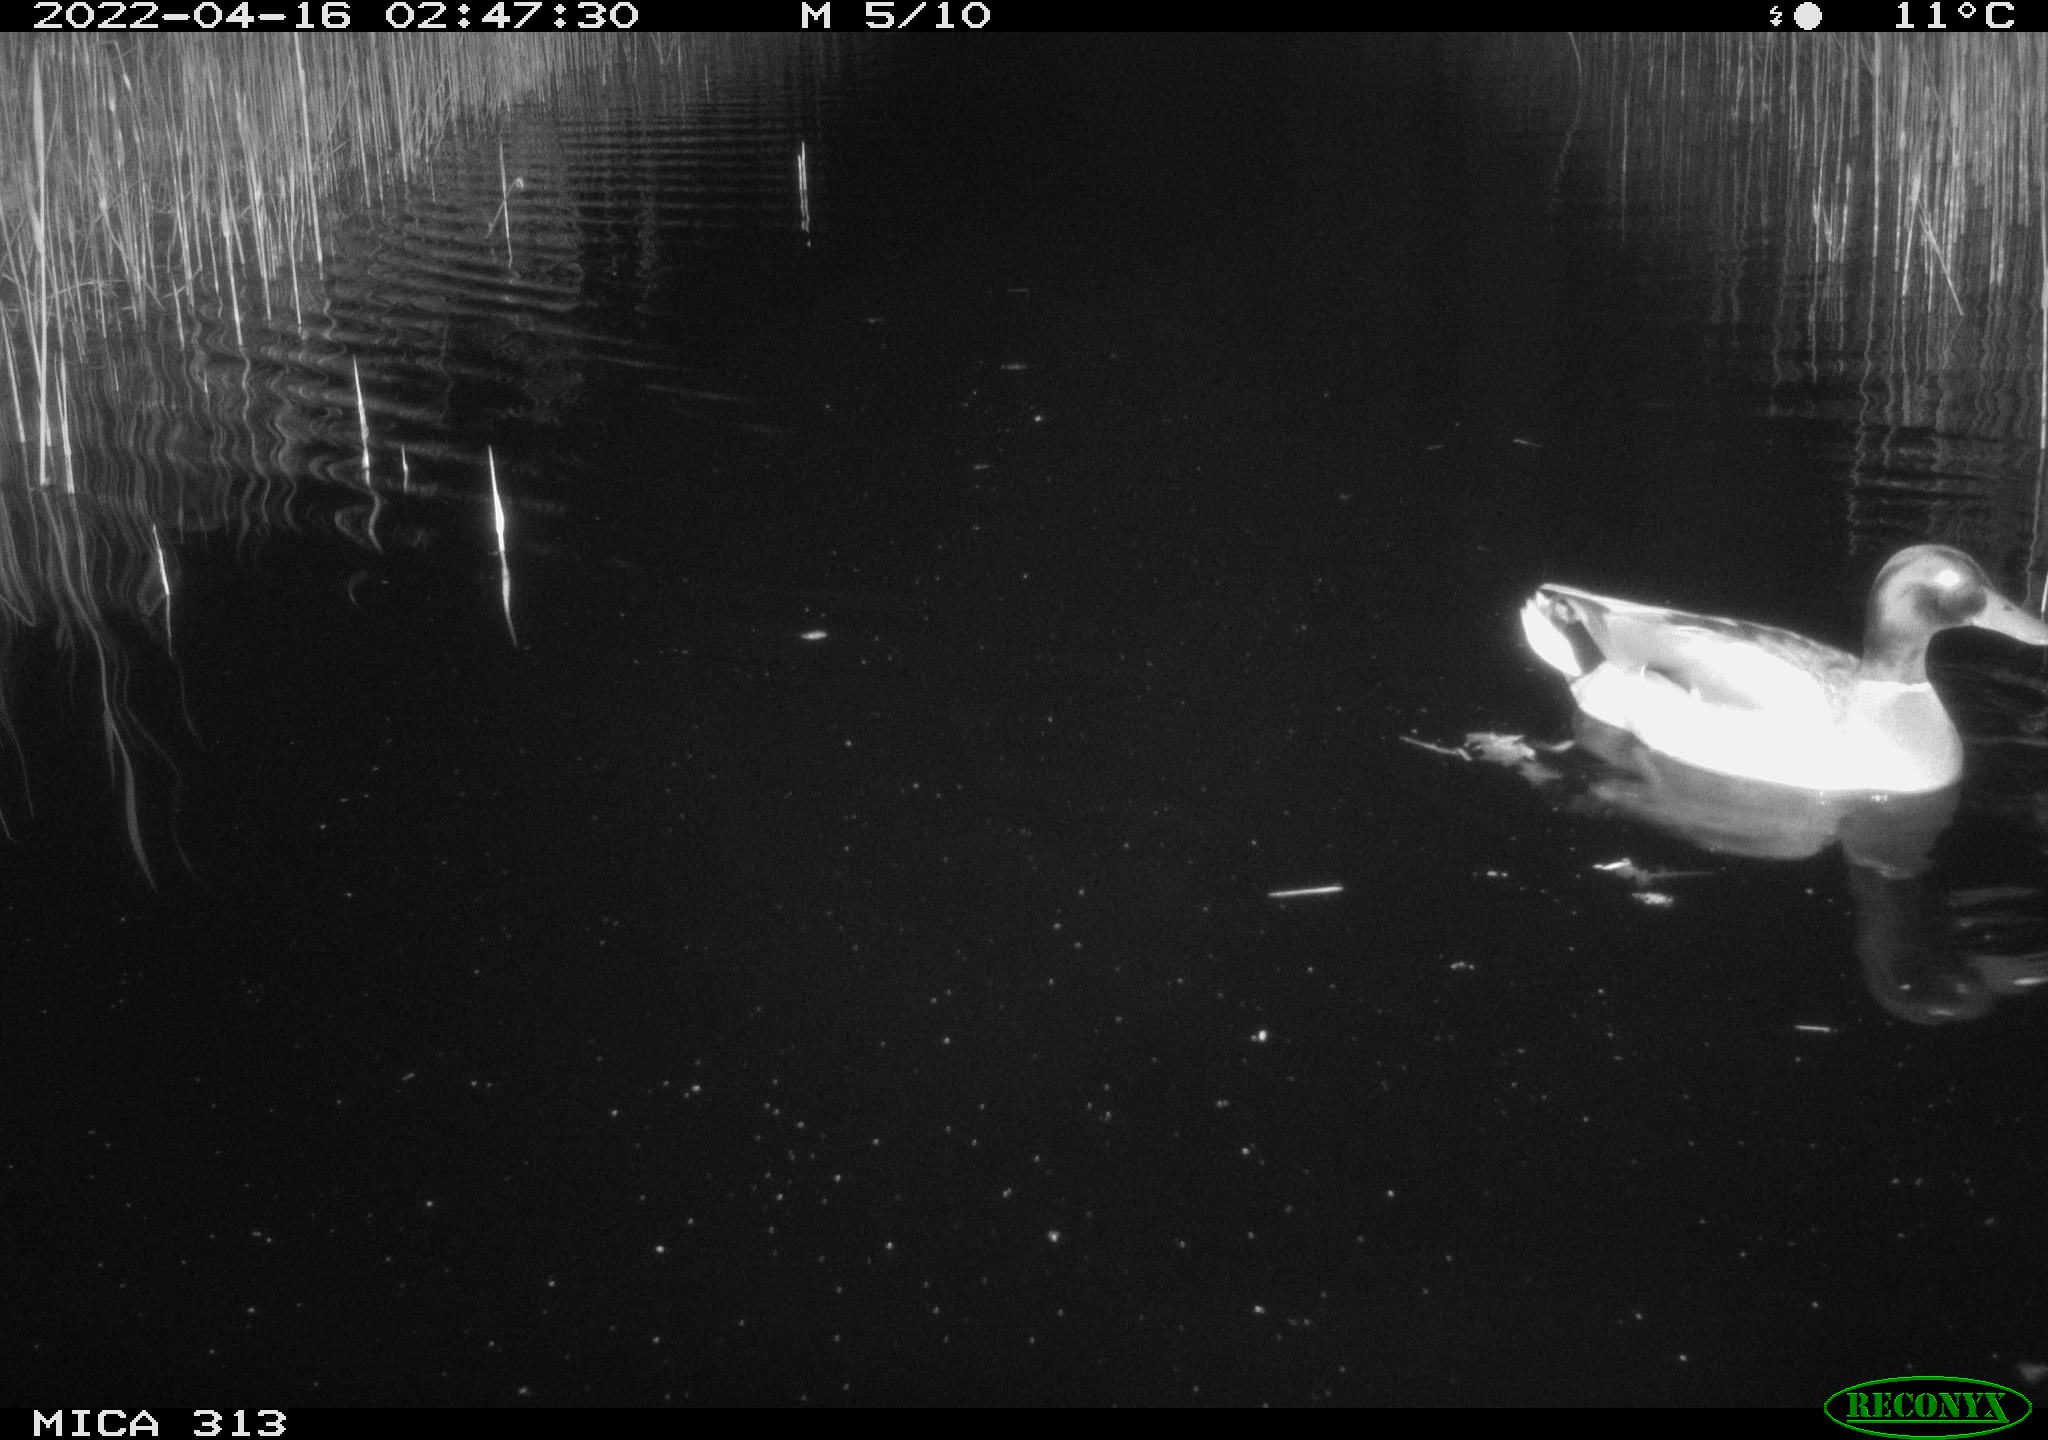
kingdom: Animalia
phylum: Chordata
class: Aves
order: Anseriformes
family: Anatidae
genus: Anas
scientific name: Anas platyrhynchos
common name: Mallard
